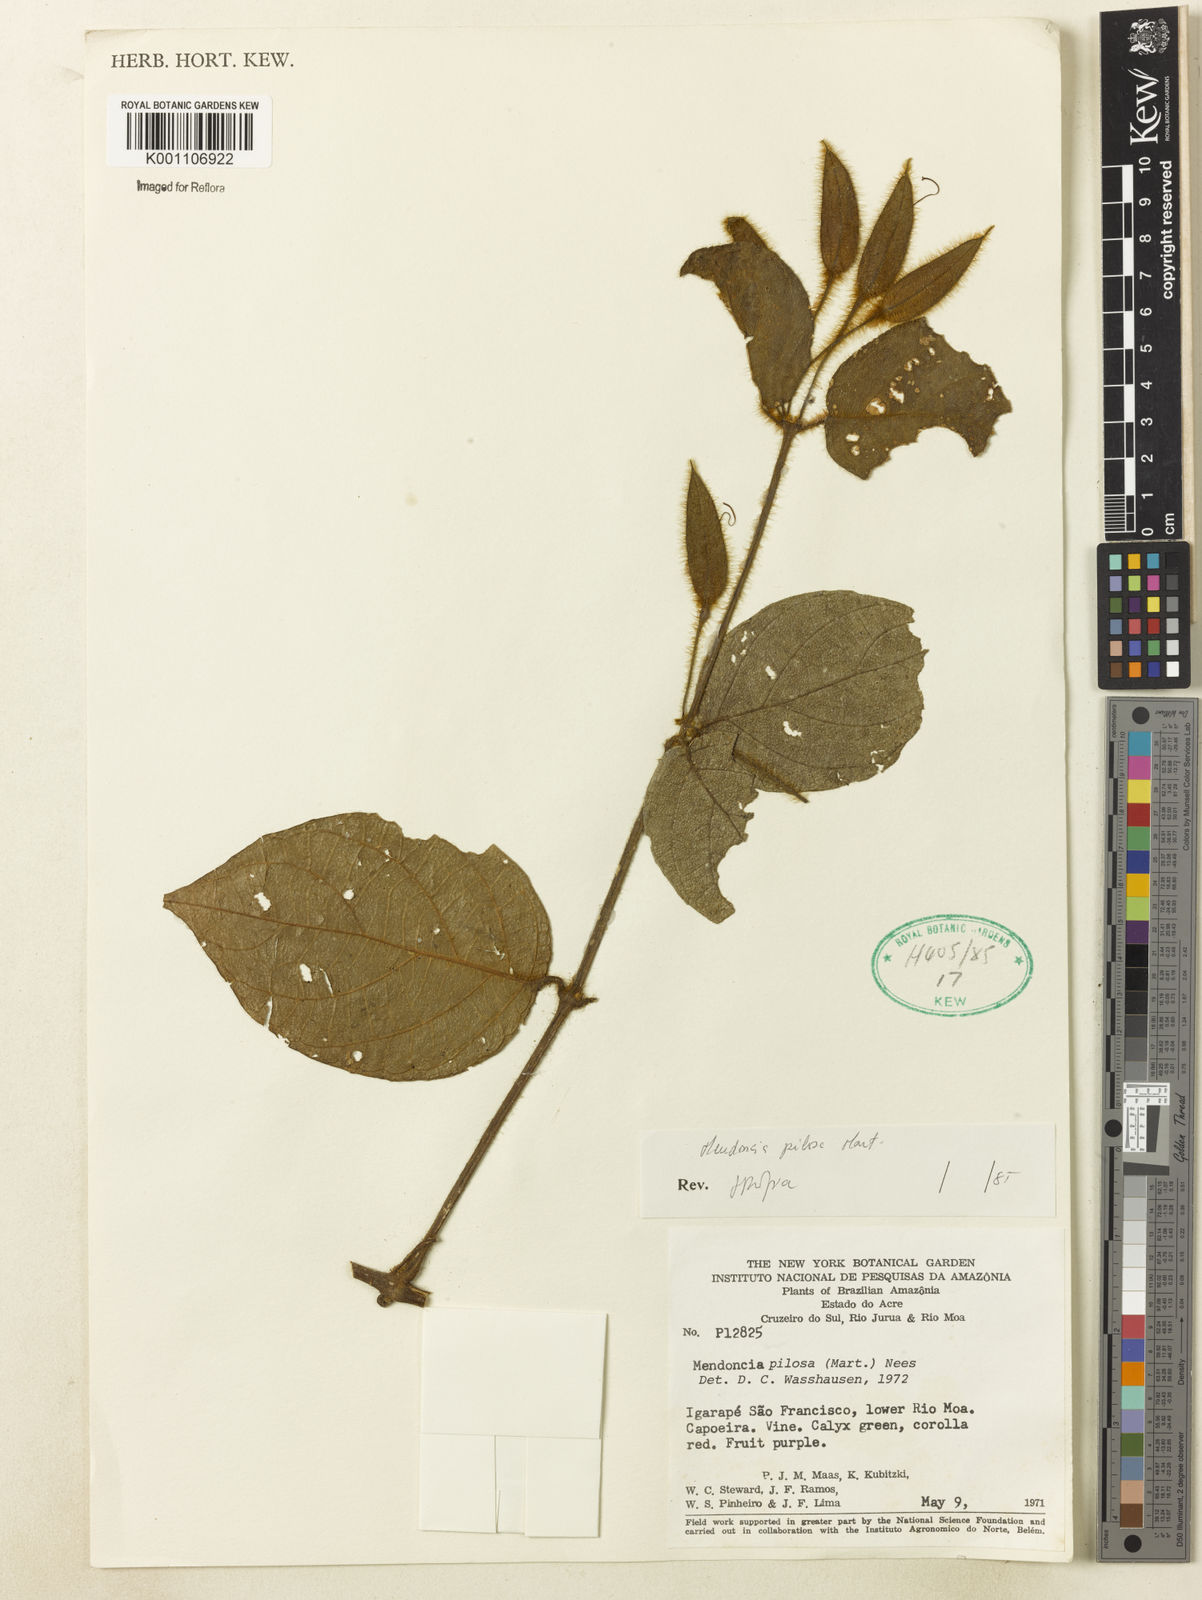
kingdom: Plantae
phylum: Tracheophyta
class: Magnoliopsida
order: Lamiales
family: Acanthaceae
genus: Mendoncia
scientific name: Mendoncia pilosa
